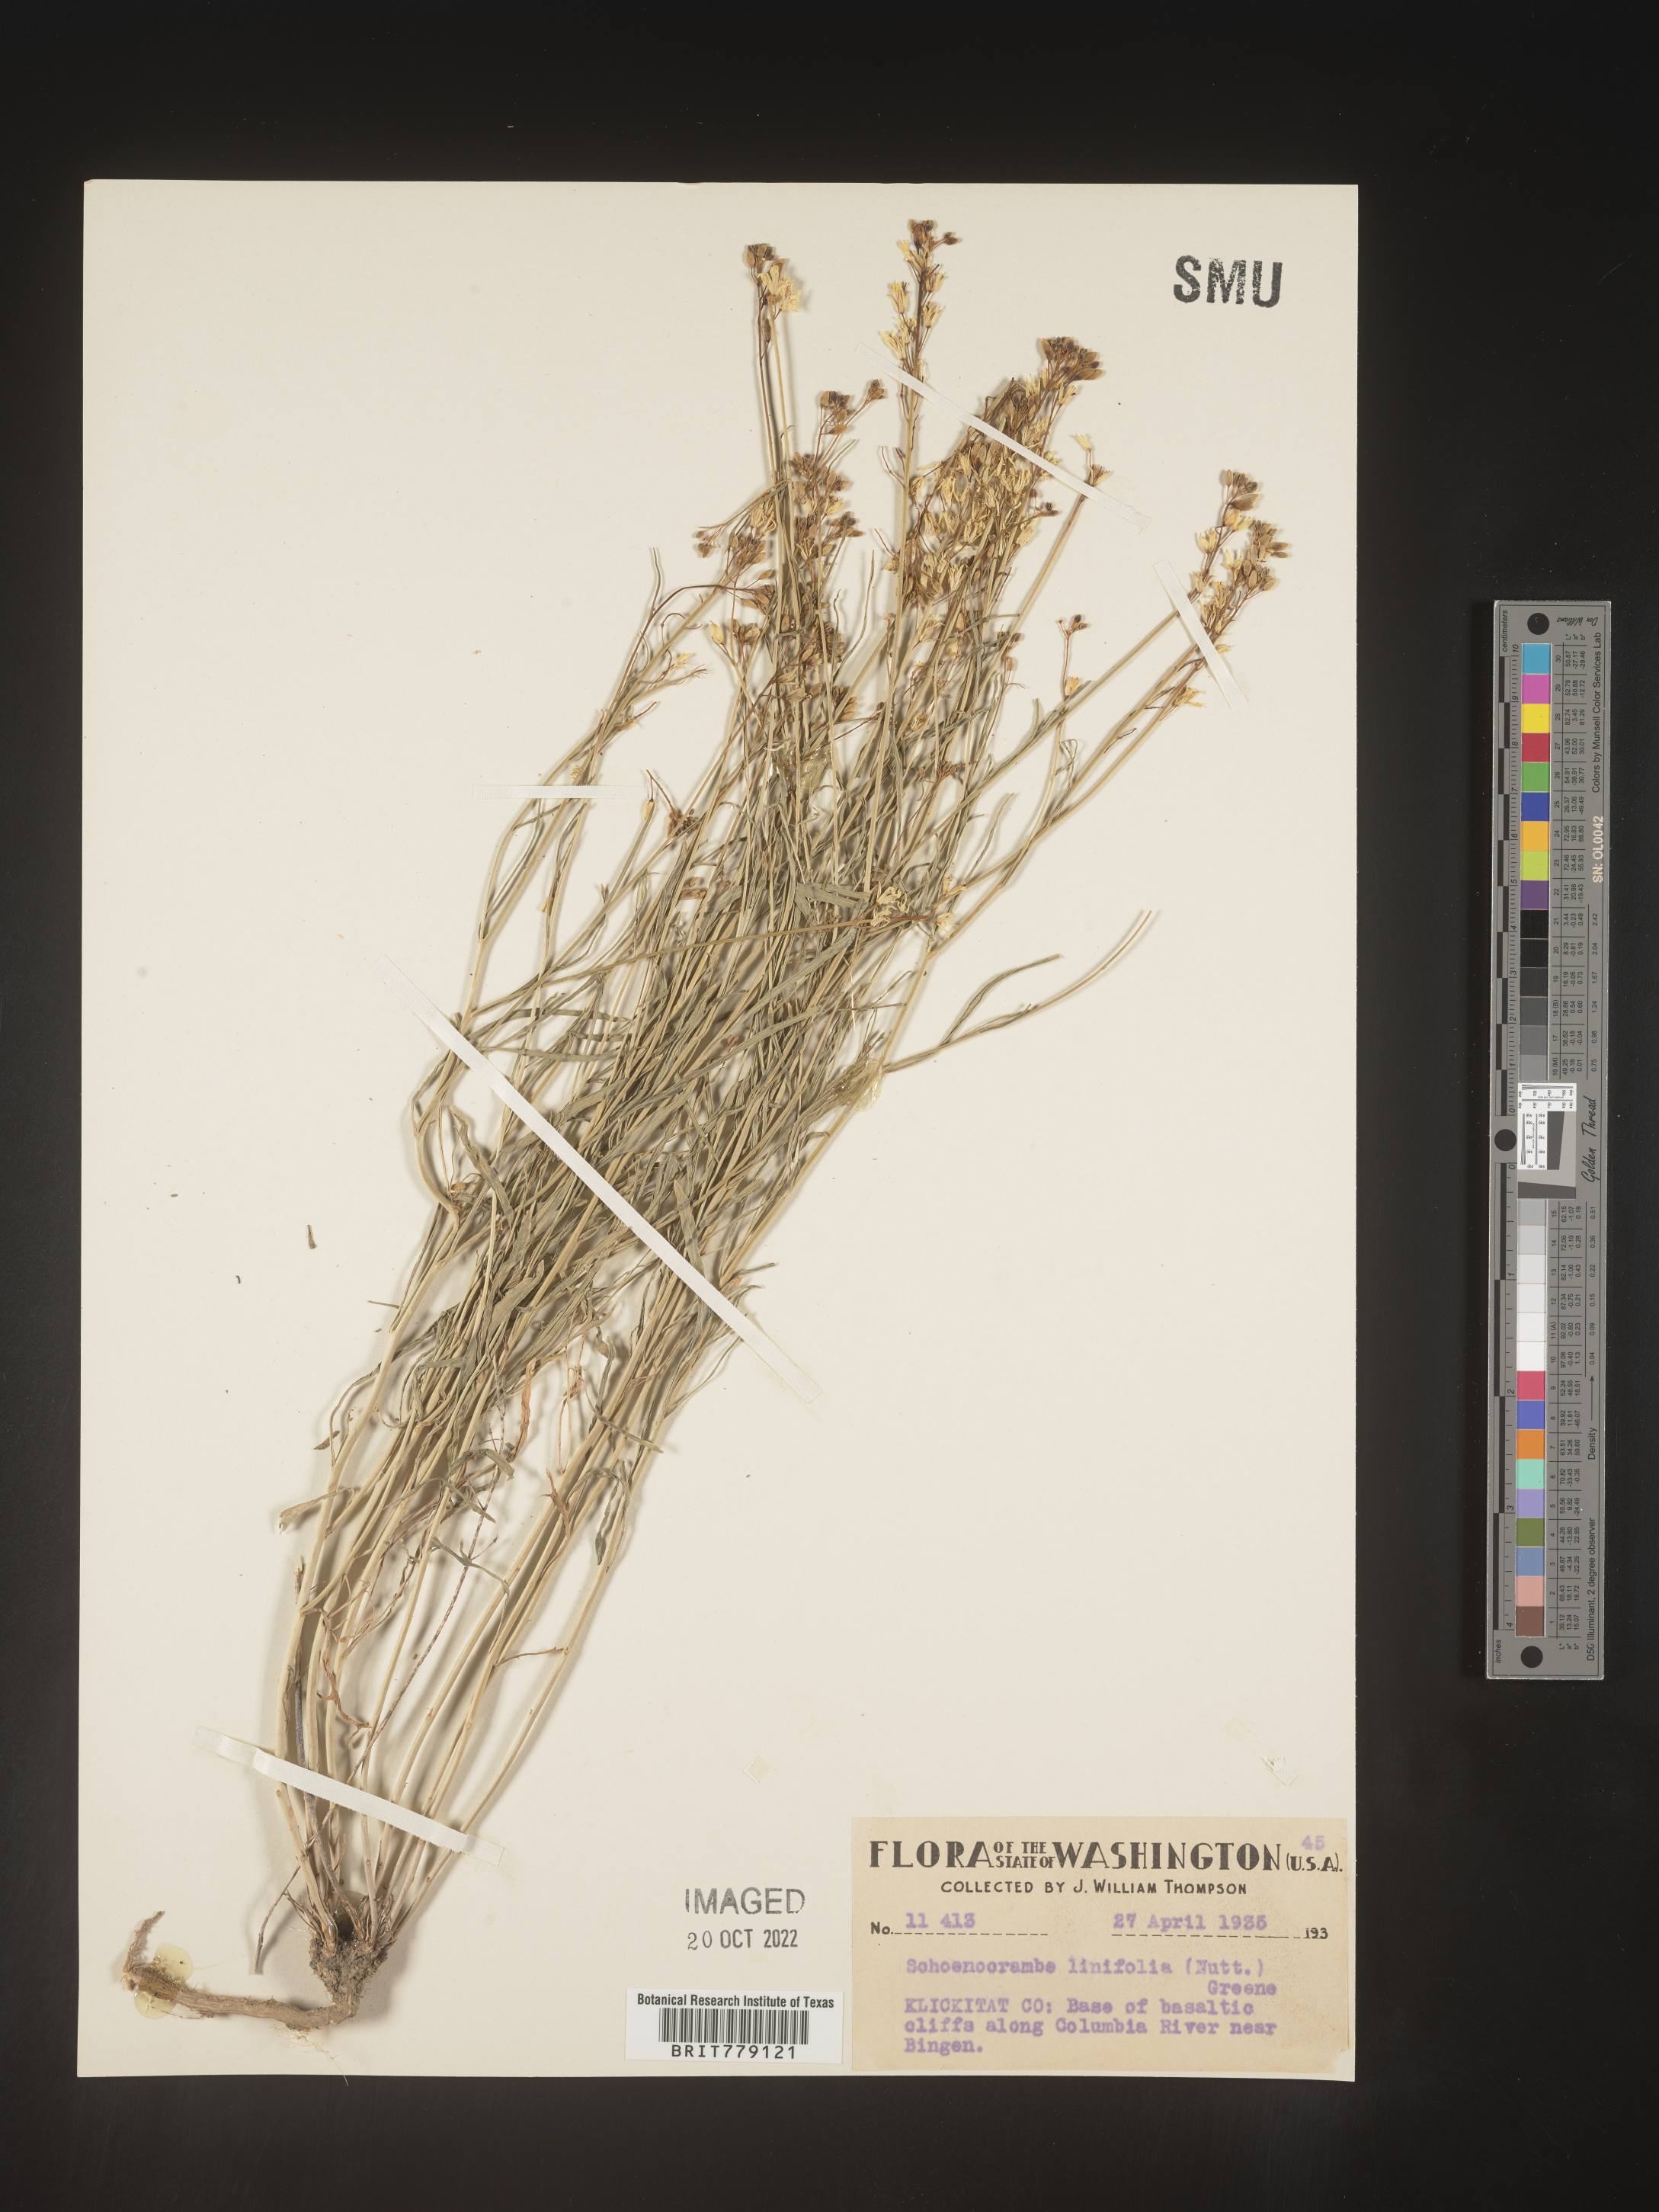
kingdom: Plantae
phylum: Tracheophyta
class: Magnoliopsida
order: Brassicales
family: Brassicaceae
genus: Hesperidanthus
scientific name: Hesperidanthus
